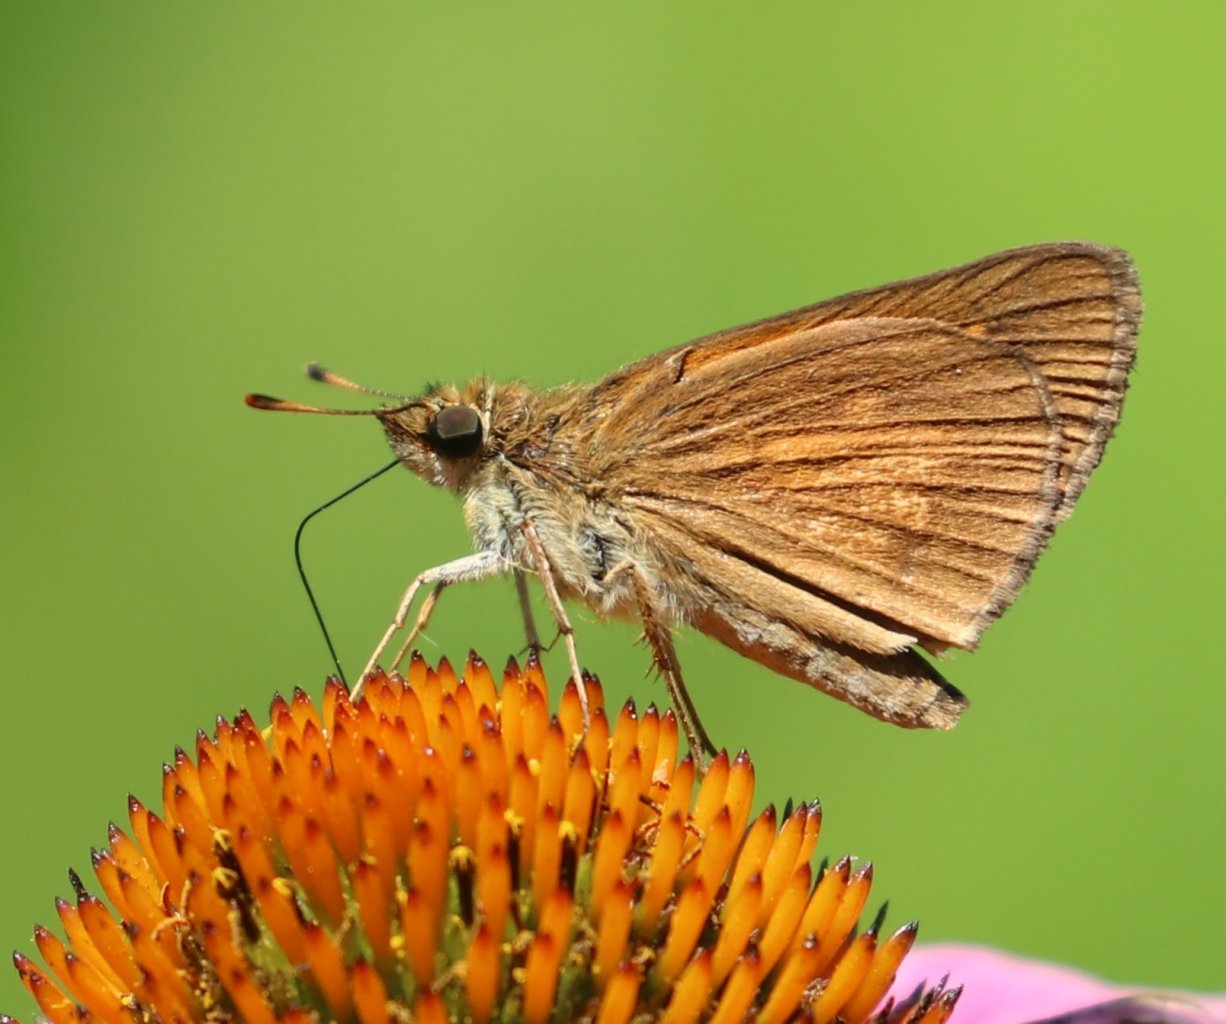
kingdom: Animalia
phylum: Arthropoda
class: Insecta
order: Lepidoptera
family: Hesperiidae
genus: Poanes
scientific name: Poanes viator
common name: Broad-winged Skipper
